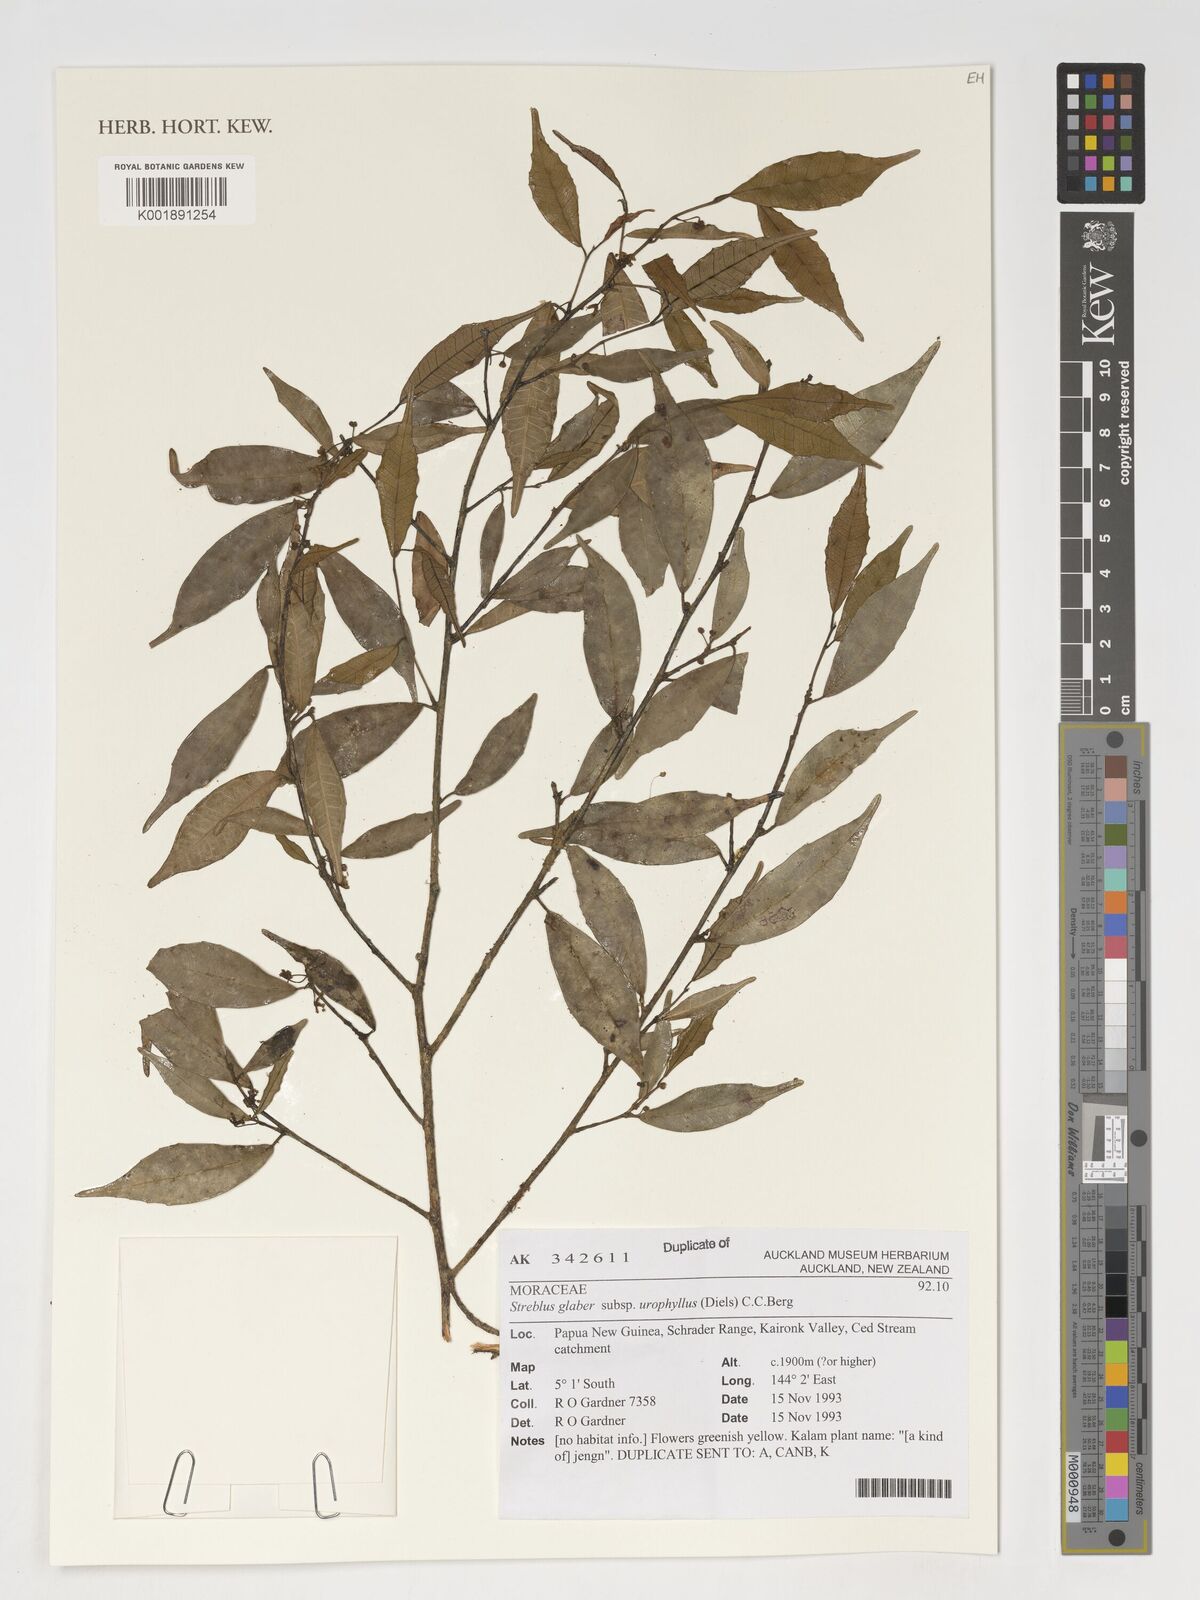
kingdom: Plantae
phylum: Tracheophyta
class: Magnoliopsida
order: Rosales
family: Moraceae
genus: Paratrophis
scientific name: Paratrophis glabra
